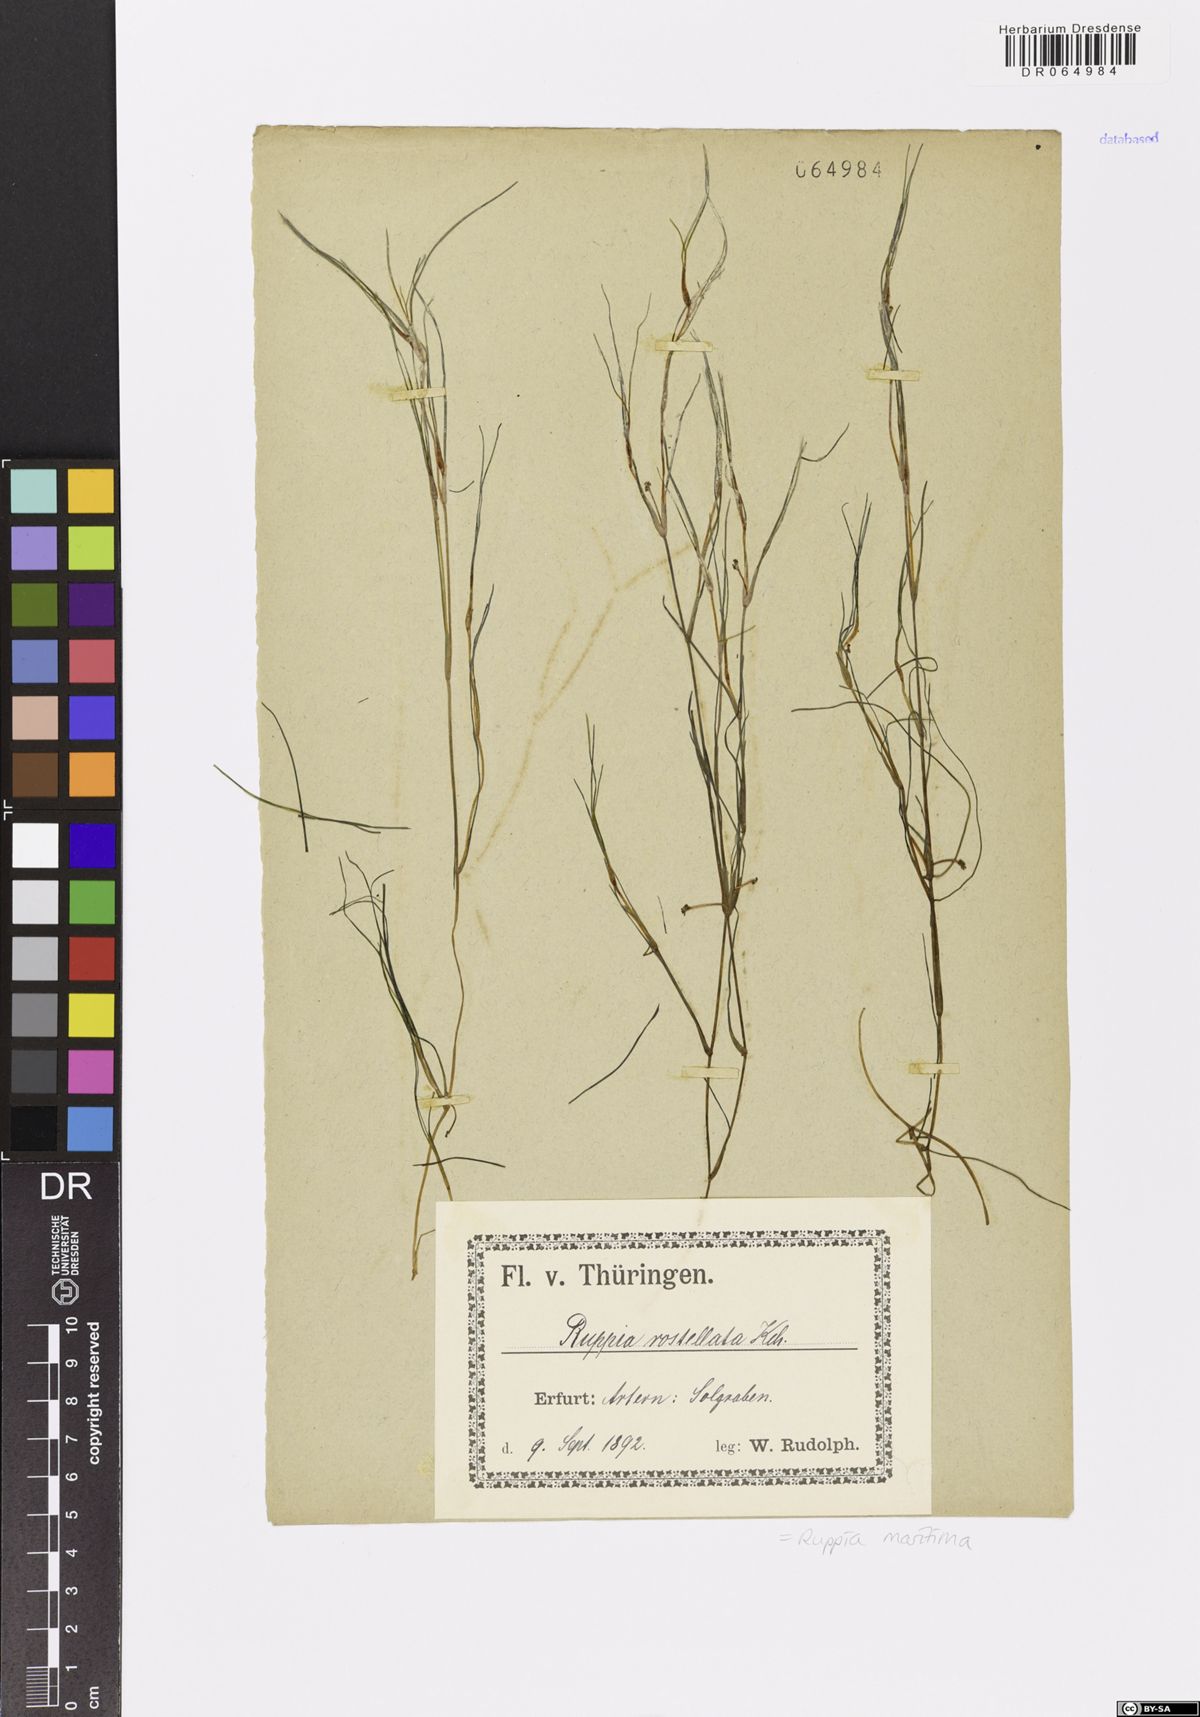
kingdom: Plantae
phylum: Tracheophyta
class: Liliopsida
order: Alismatales
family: Ruppiaceae
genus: Ruppia
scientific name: Ruppia maritima
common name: Beaked tasselweed
